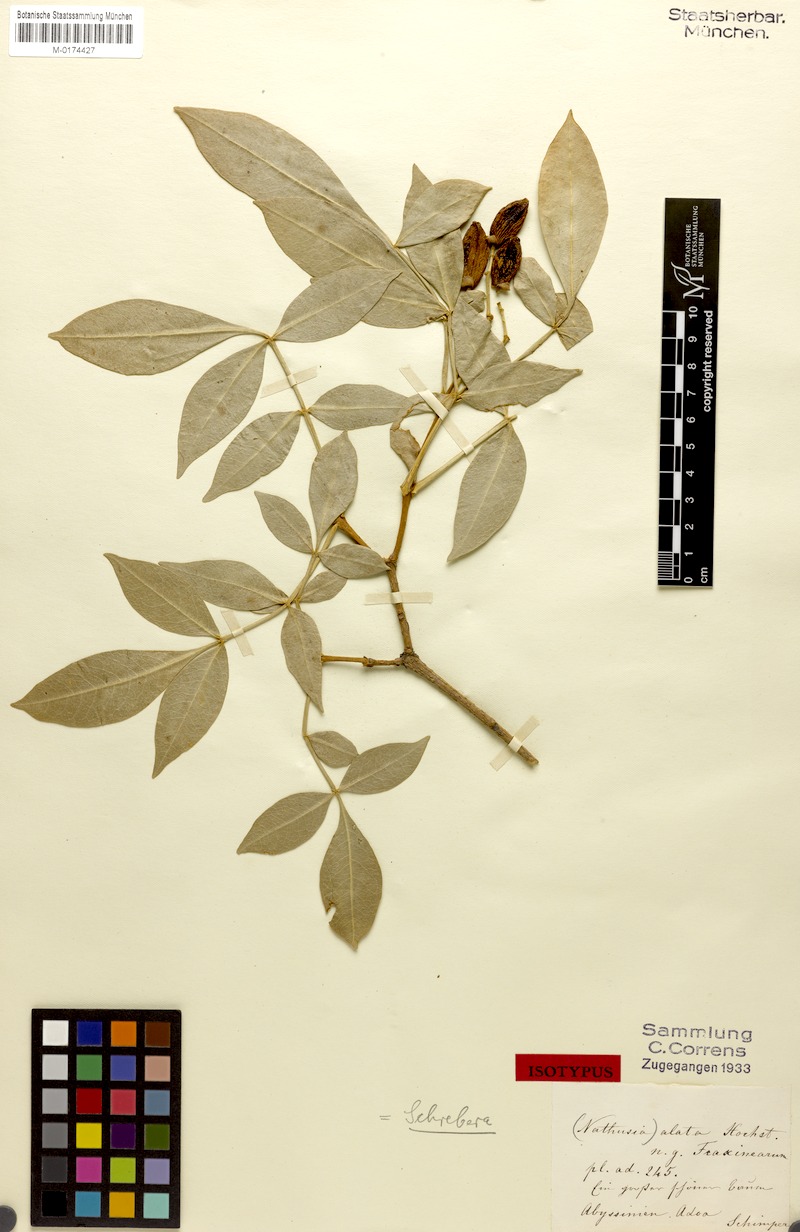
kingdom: Plantae
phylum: Tracheophyta
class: Magnoliopsida
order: Lamiales
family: Oleaceae
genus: Schrebera
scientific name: Schrebera alata
